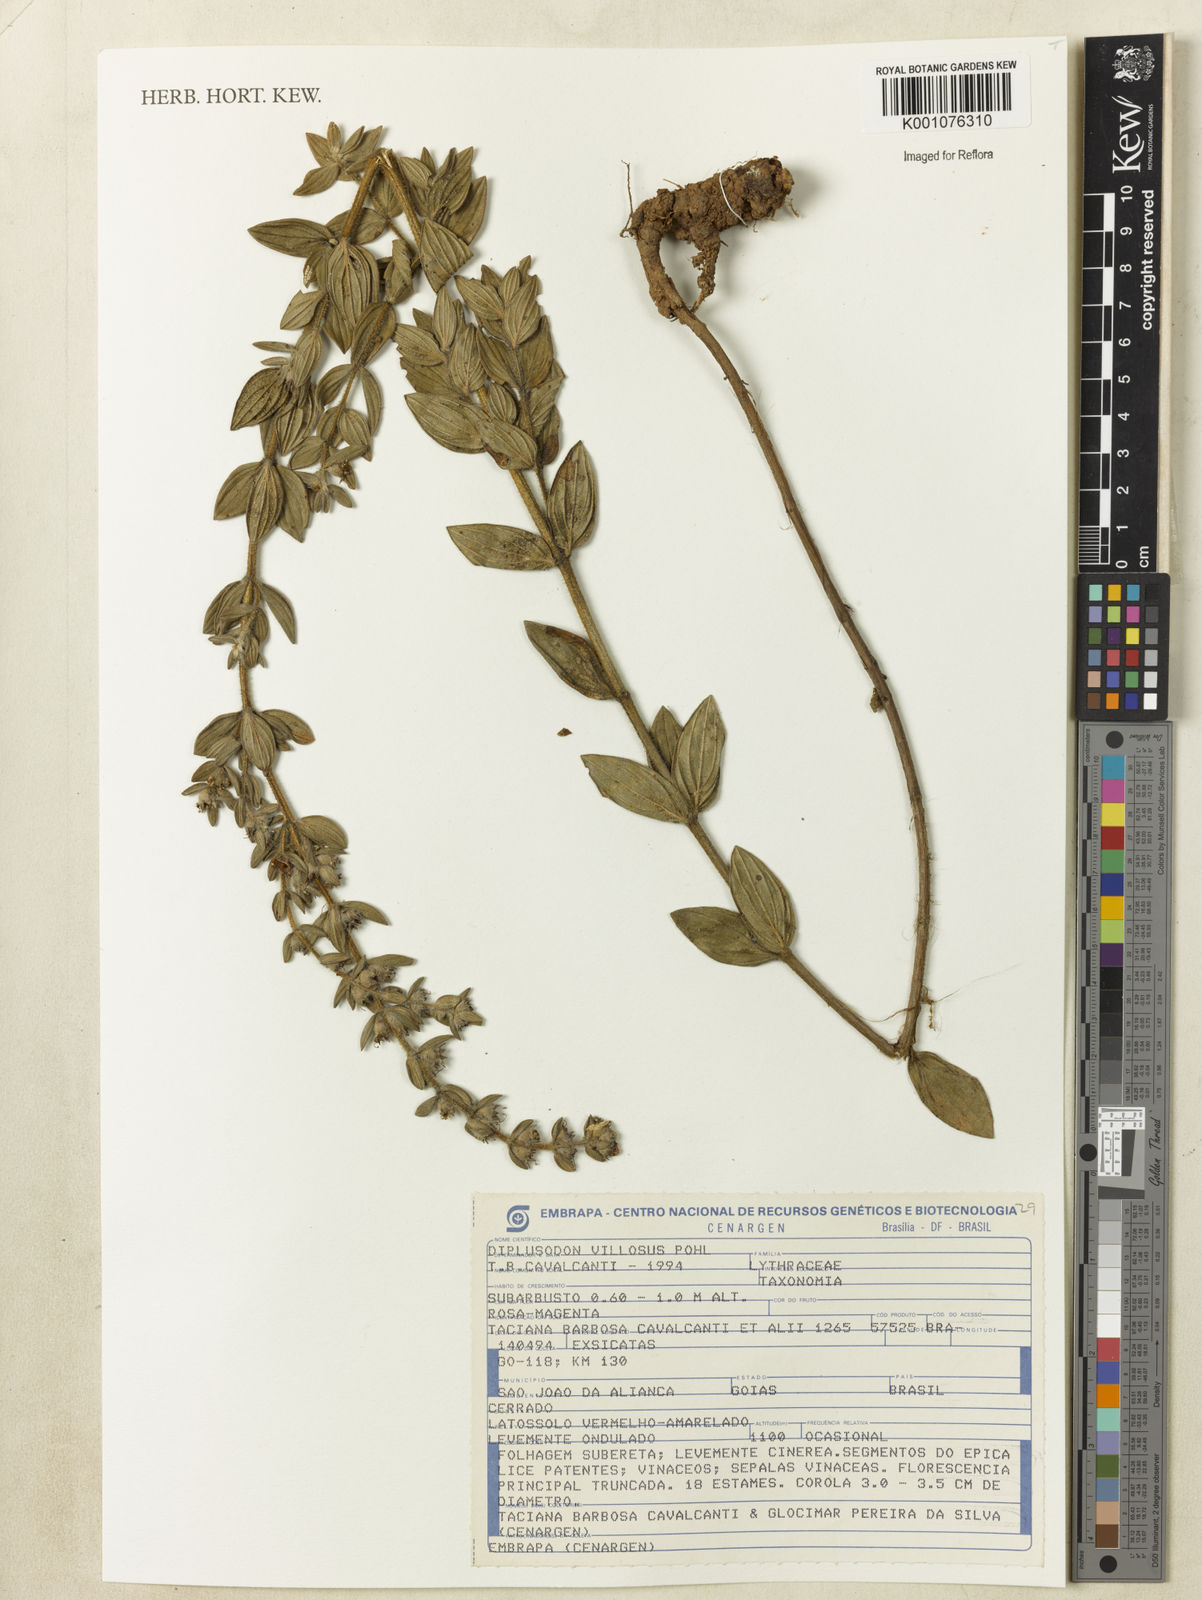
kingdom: Plantae
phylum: Tracheophyta
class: Magnoliopsida
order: Myrtales
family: Lythraceae
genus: Diplusodon
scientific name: Diplusodon villosus
